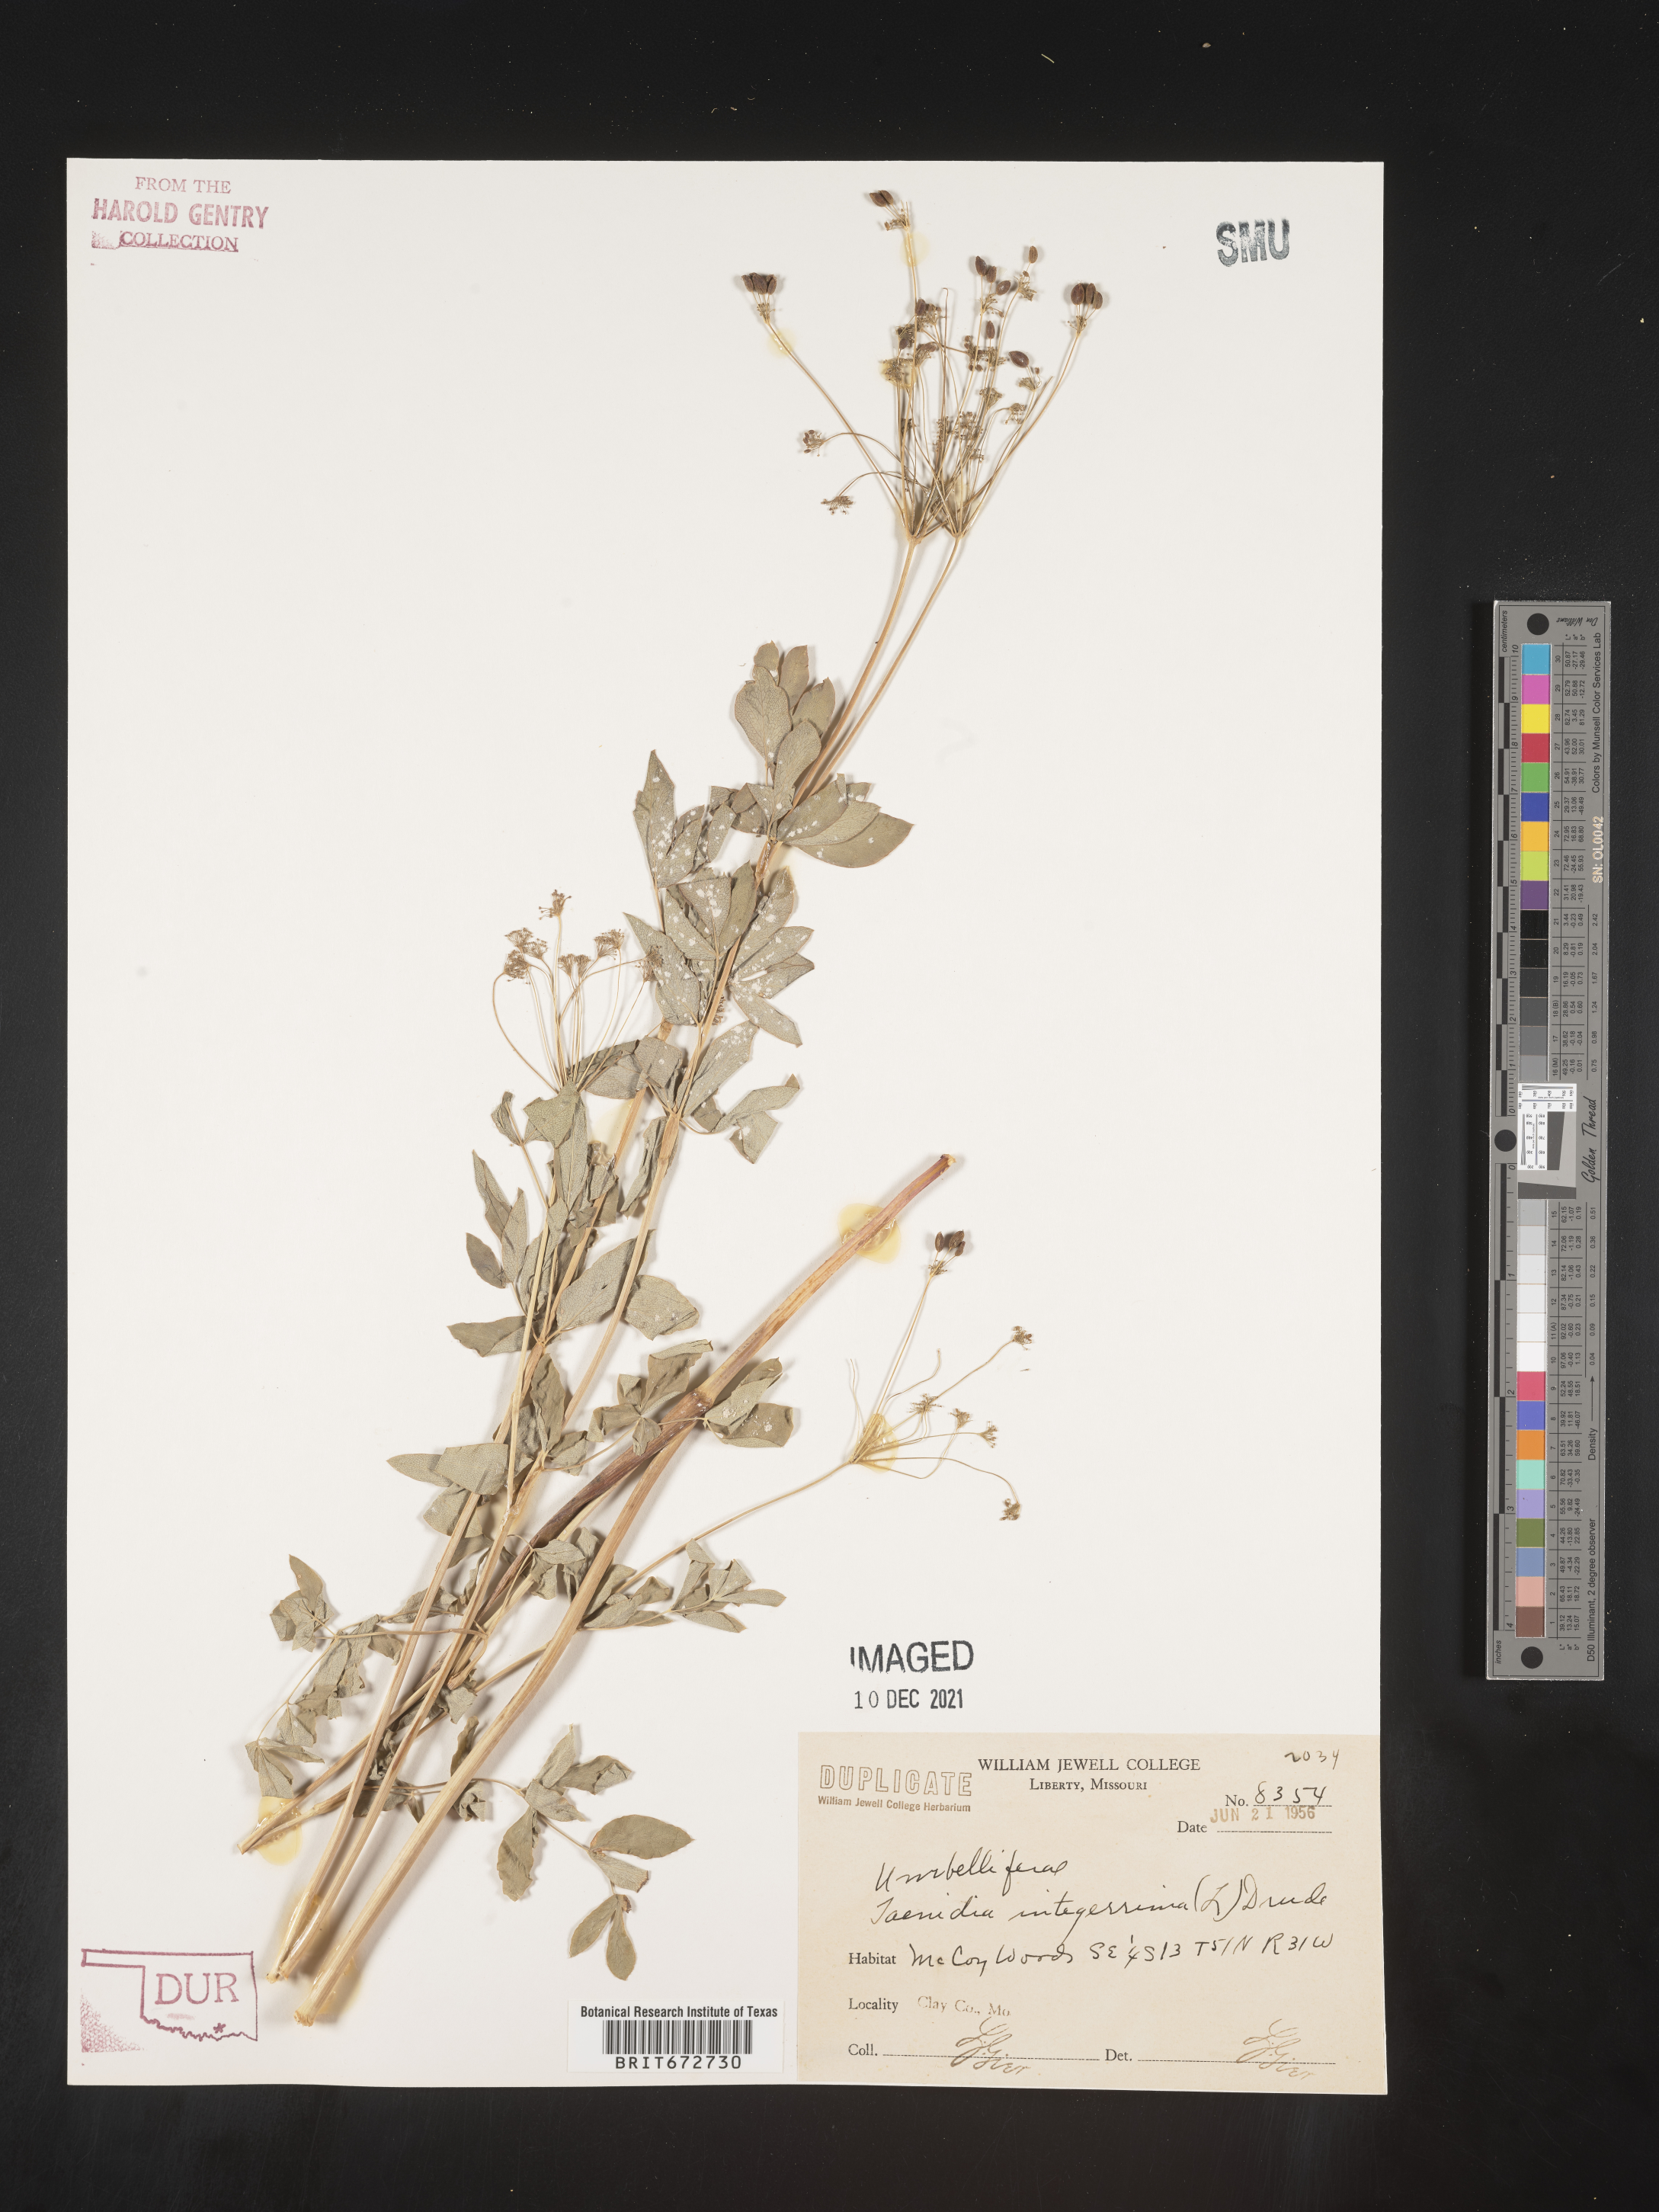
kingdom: Plantae
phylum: Tracheophyta
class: Magnoliopsida
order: Apiales
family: Apiaceae
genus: Taenidia
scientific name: Taenidia
